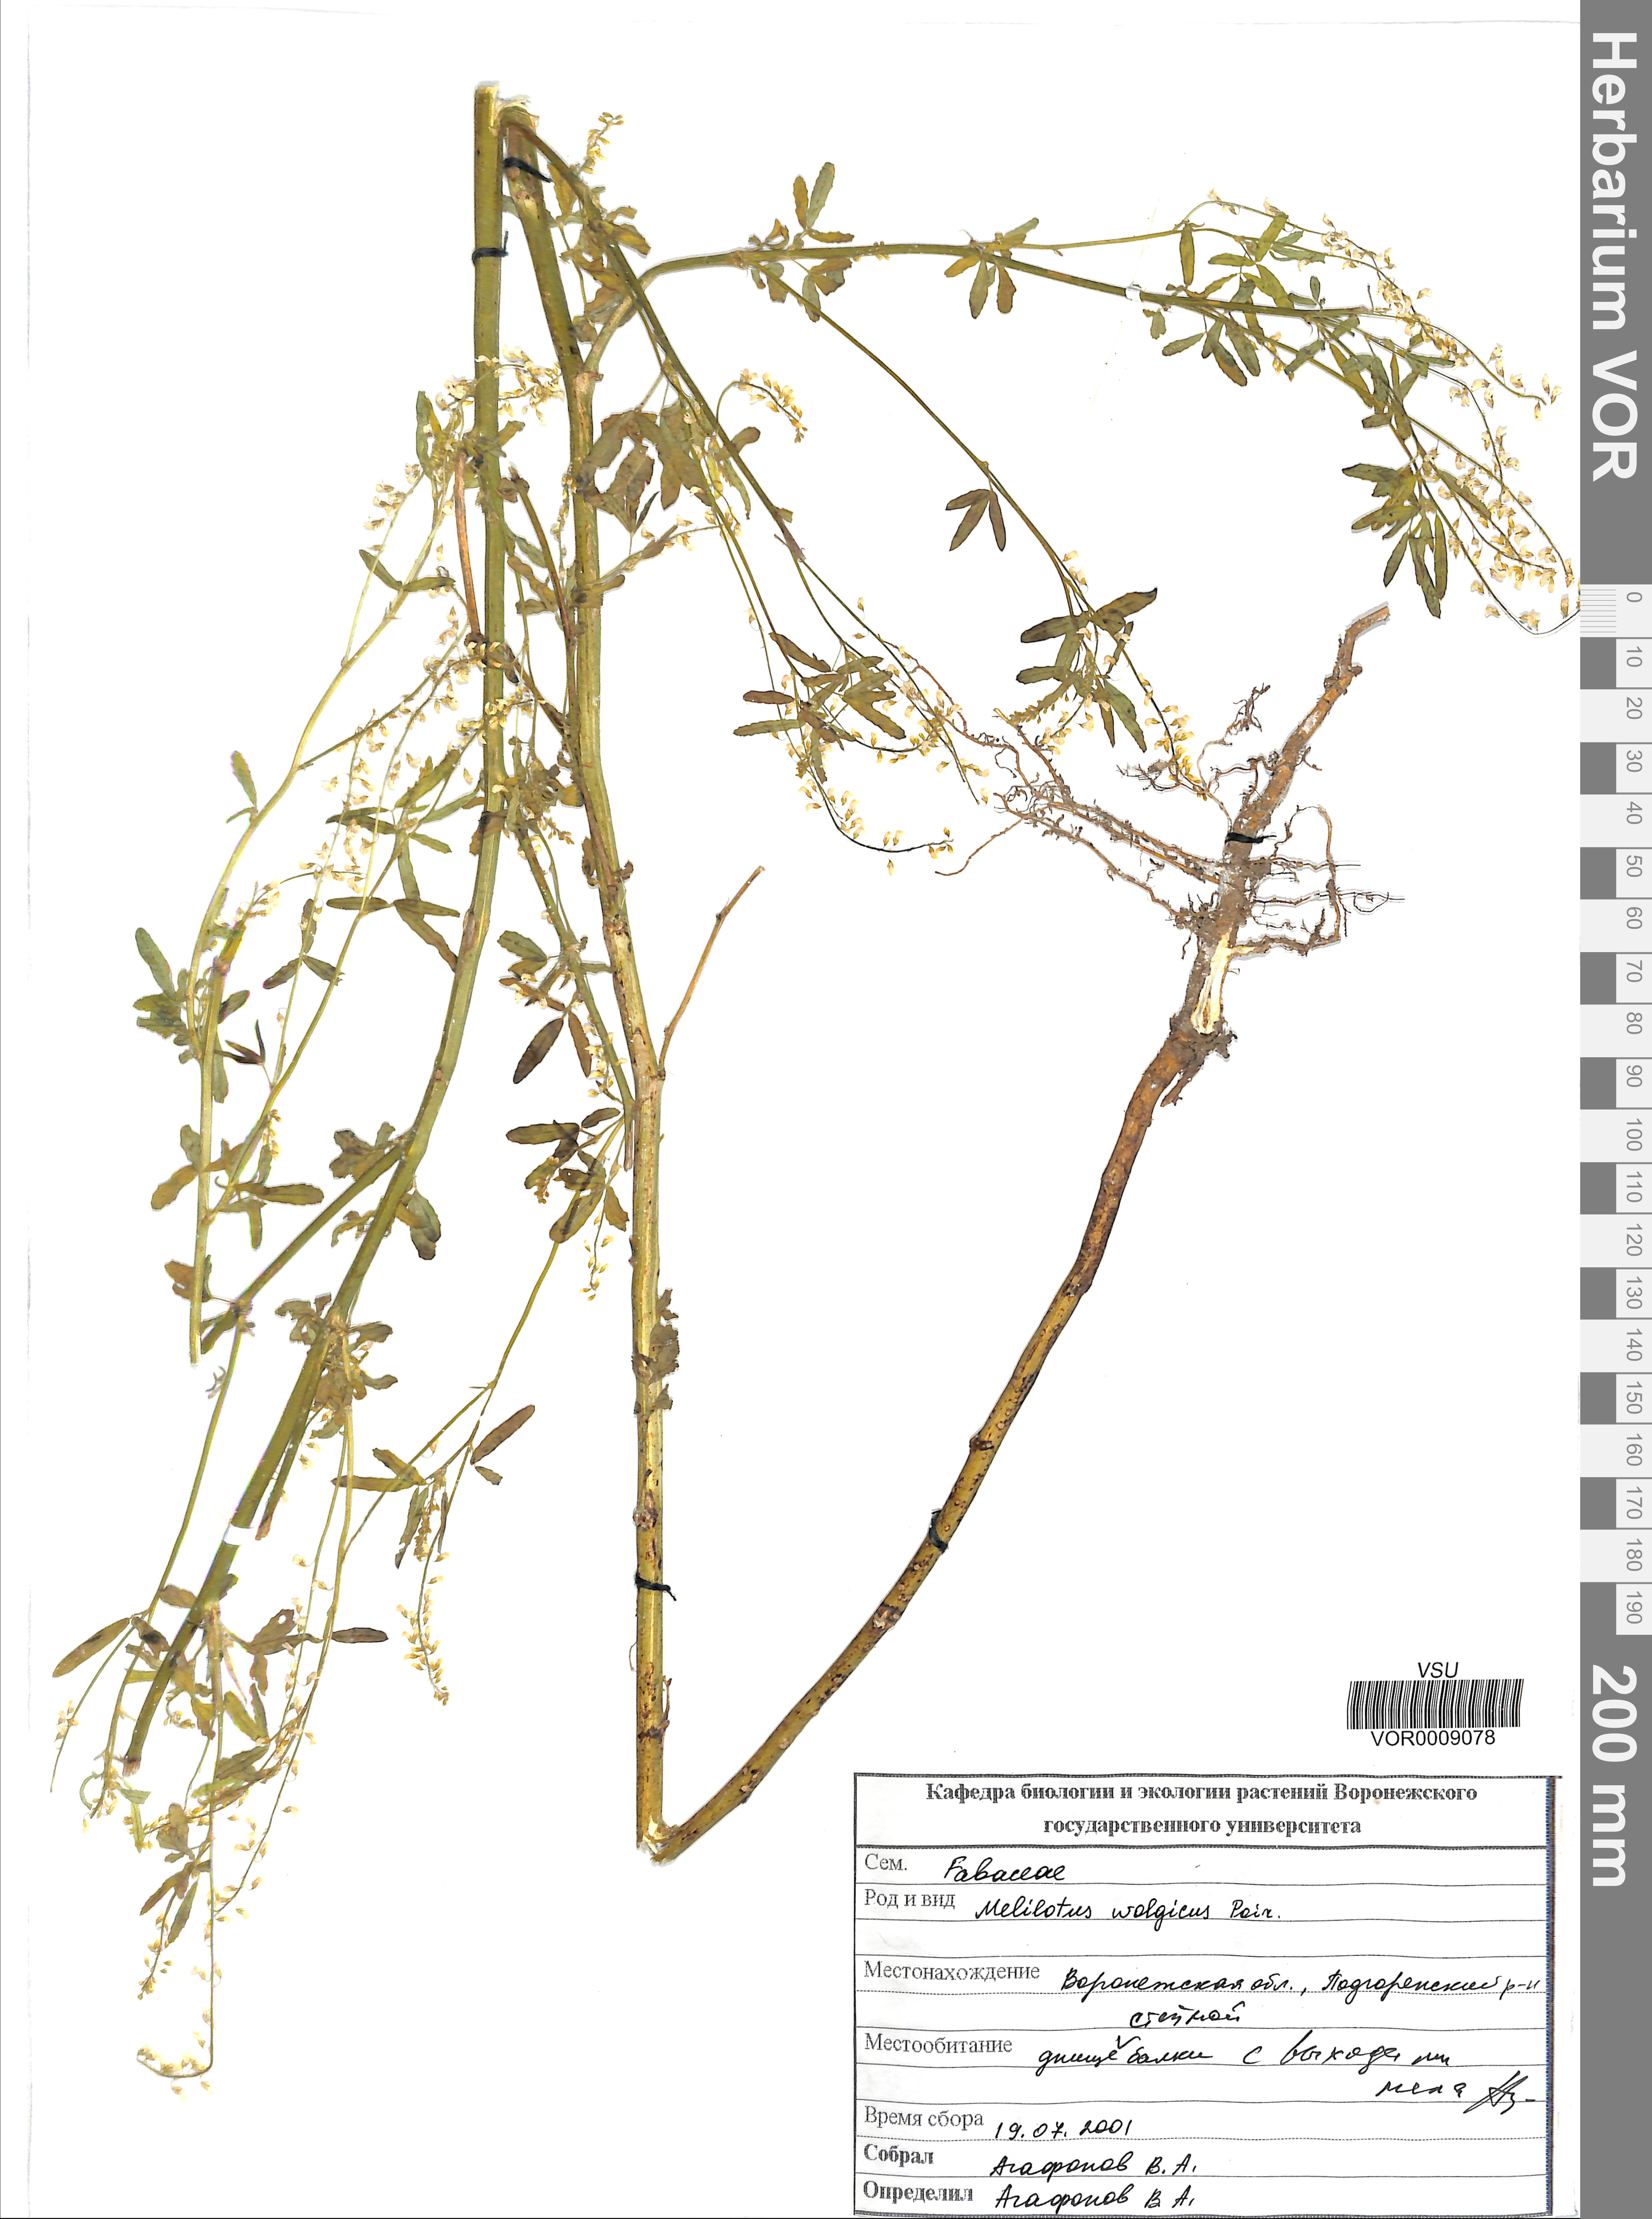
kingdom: Plantae
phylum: Tracheophyta
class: Magnoliopsida
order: Fabales
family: Fabaceae
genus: Melilotus
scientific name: Melilotus wolgicus
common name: Volga sweet-clover
